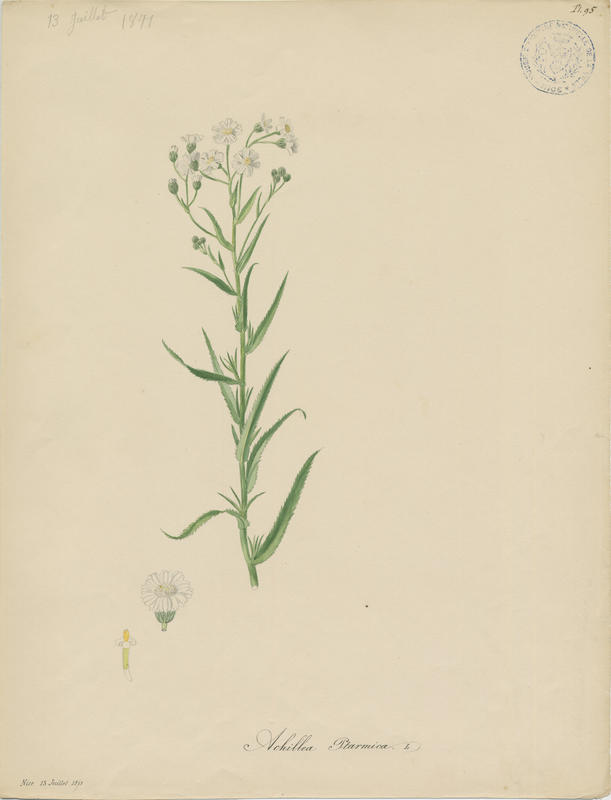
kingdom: Plantae
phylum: Tracheophyta
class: Magnoliopsida
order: Asterales
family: Asteraceae
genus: Achillea
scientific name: Achillea ptarmica
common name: Sneezeweed
